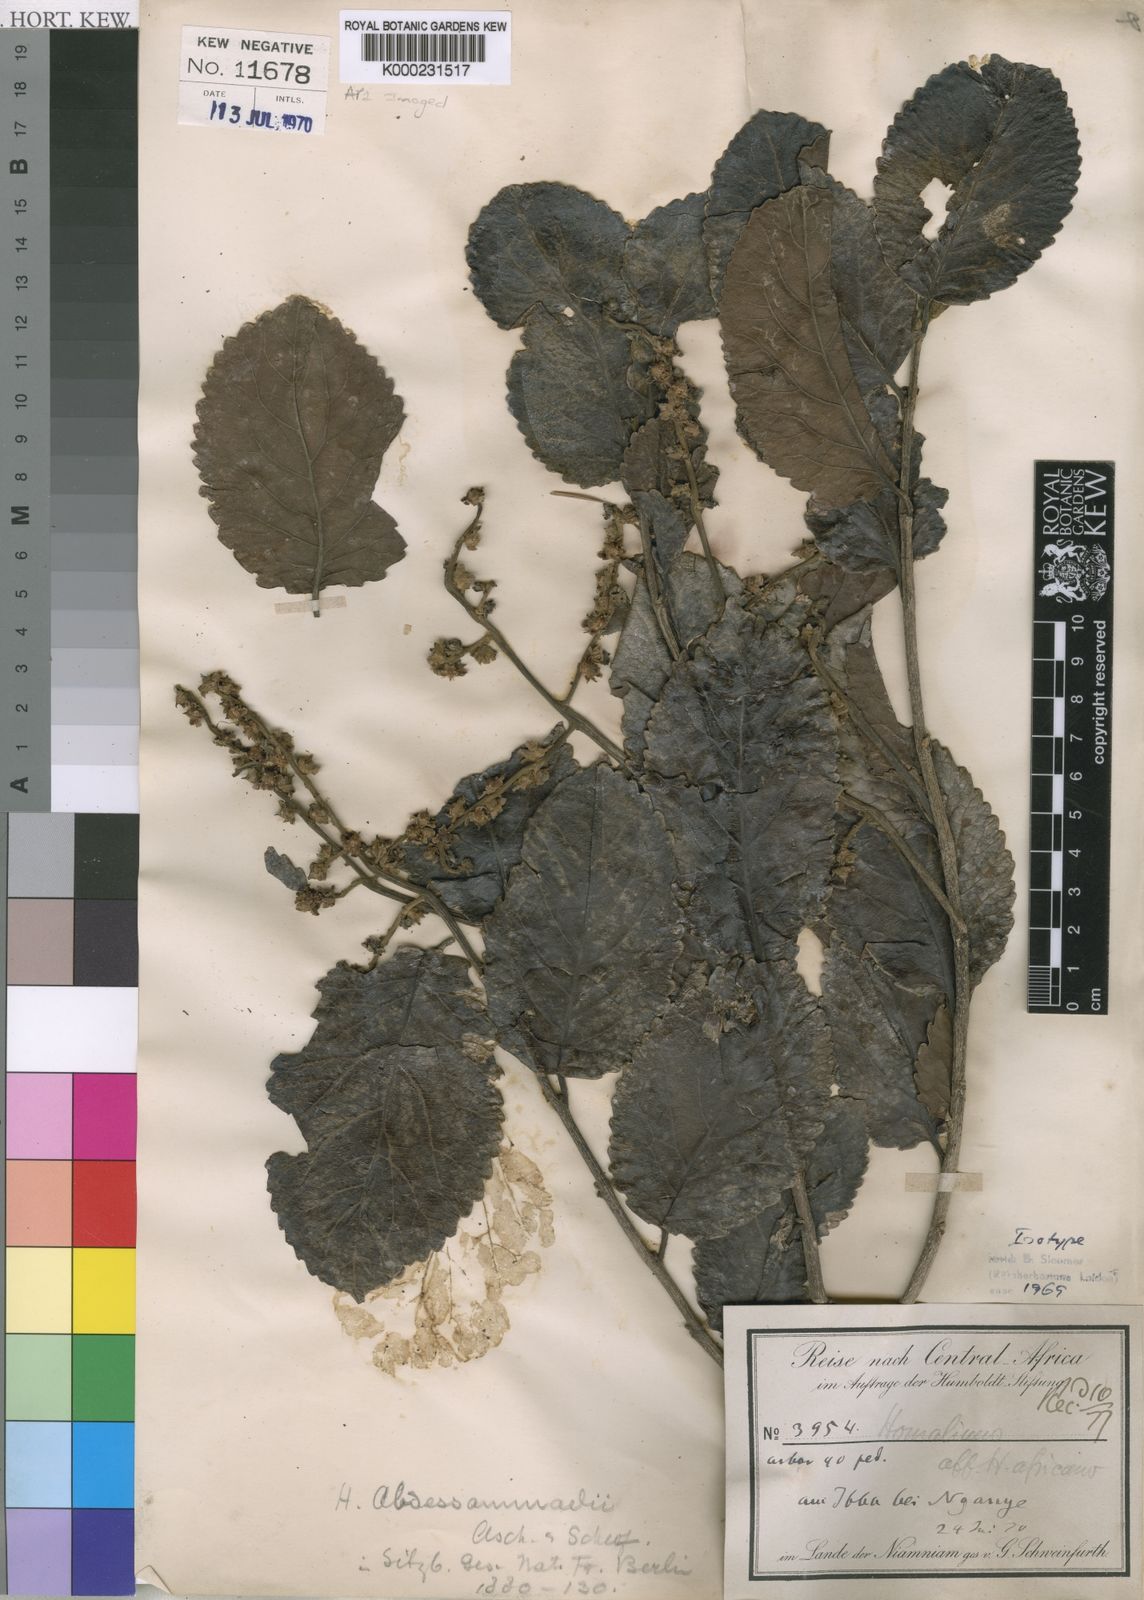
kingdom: Plantae
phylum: Tracheophyta
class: Magnoliopsida
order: Malpighiales
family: Salicaceae
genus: Homalium
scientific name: Homalium
